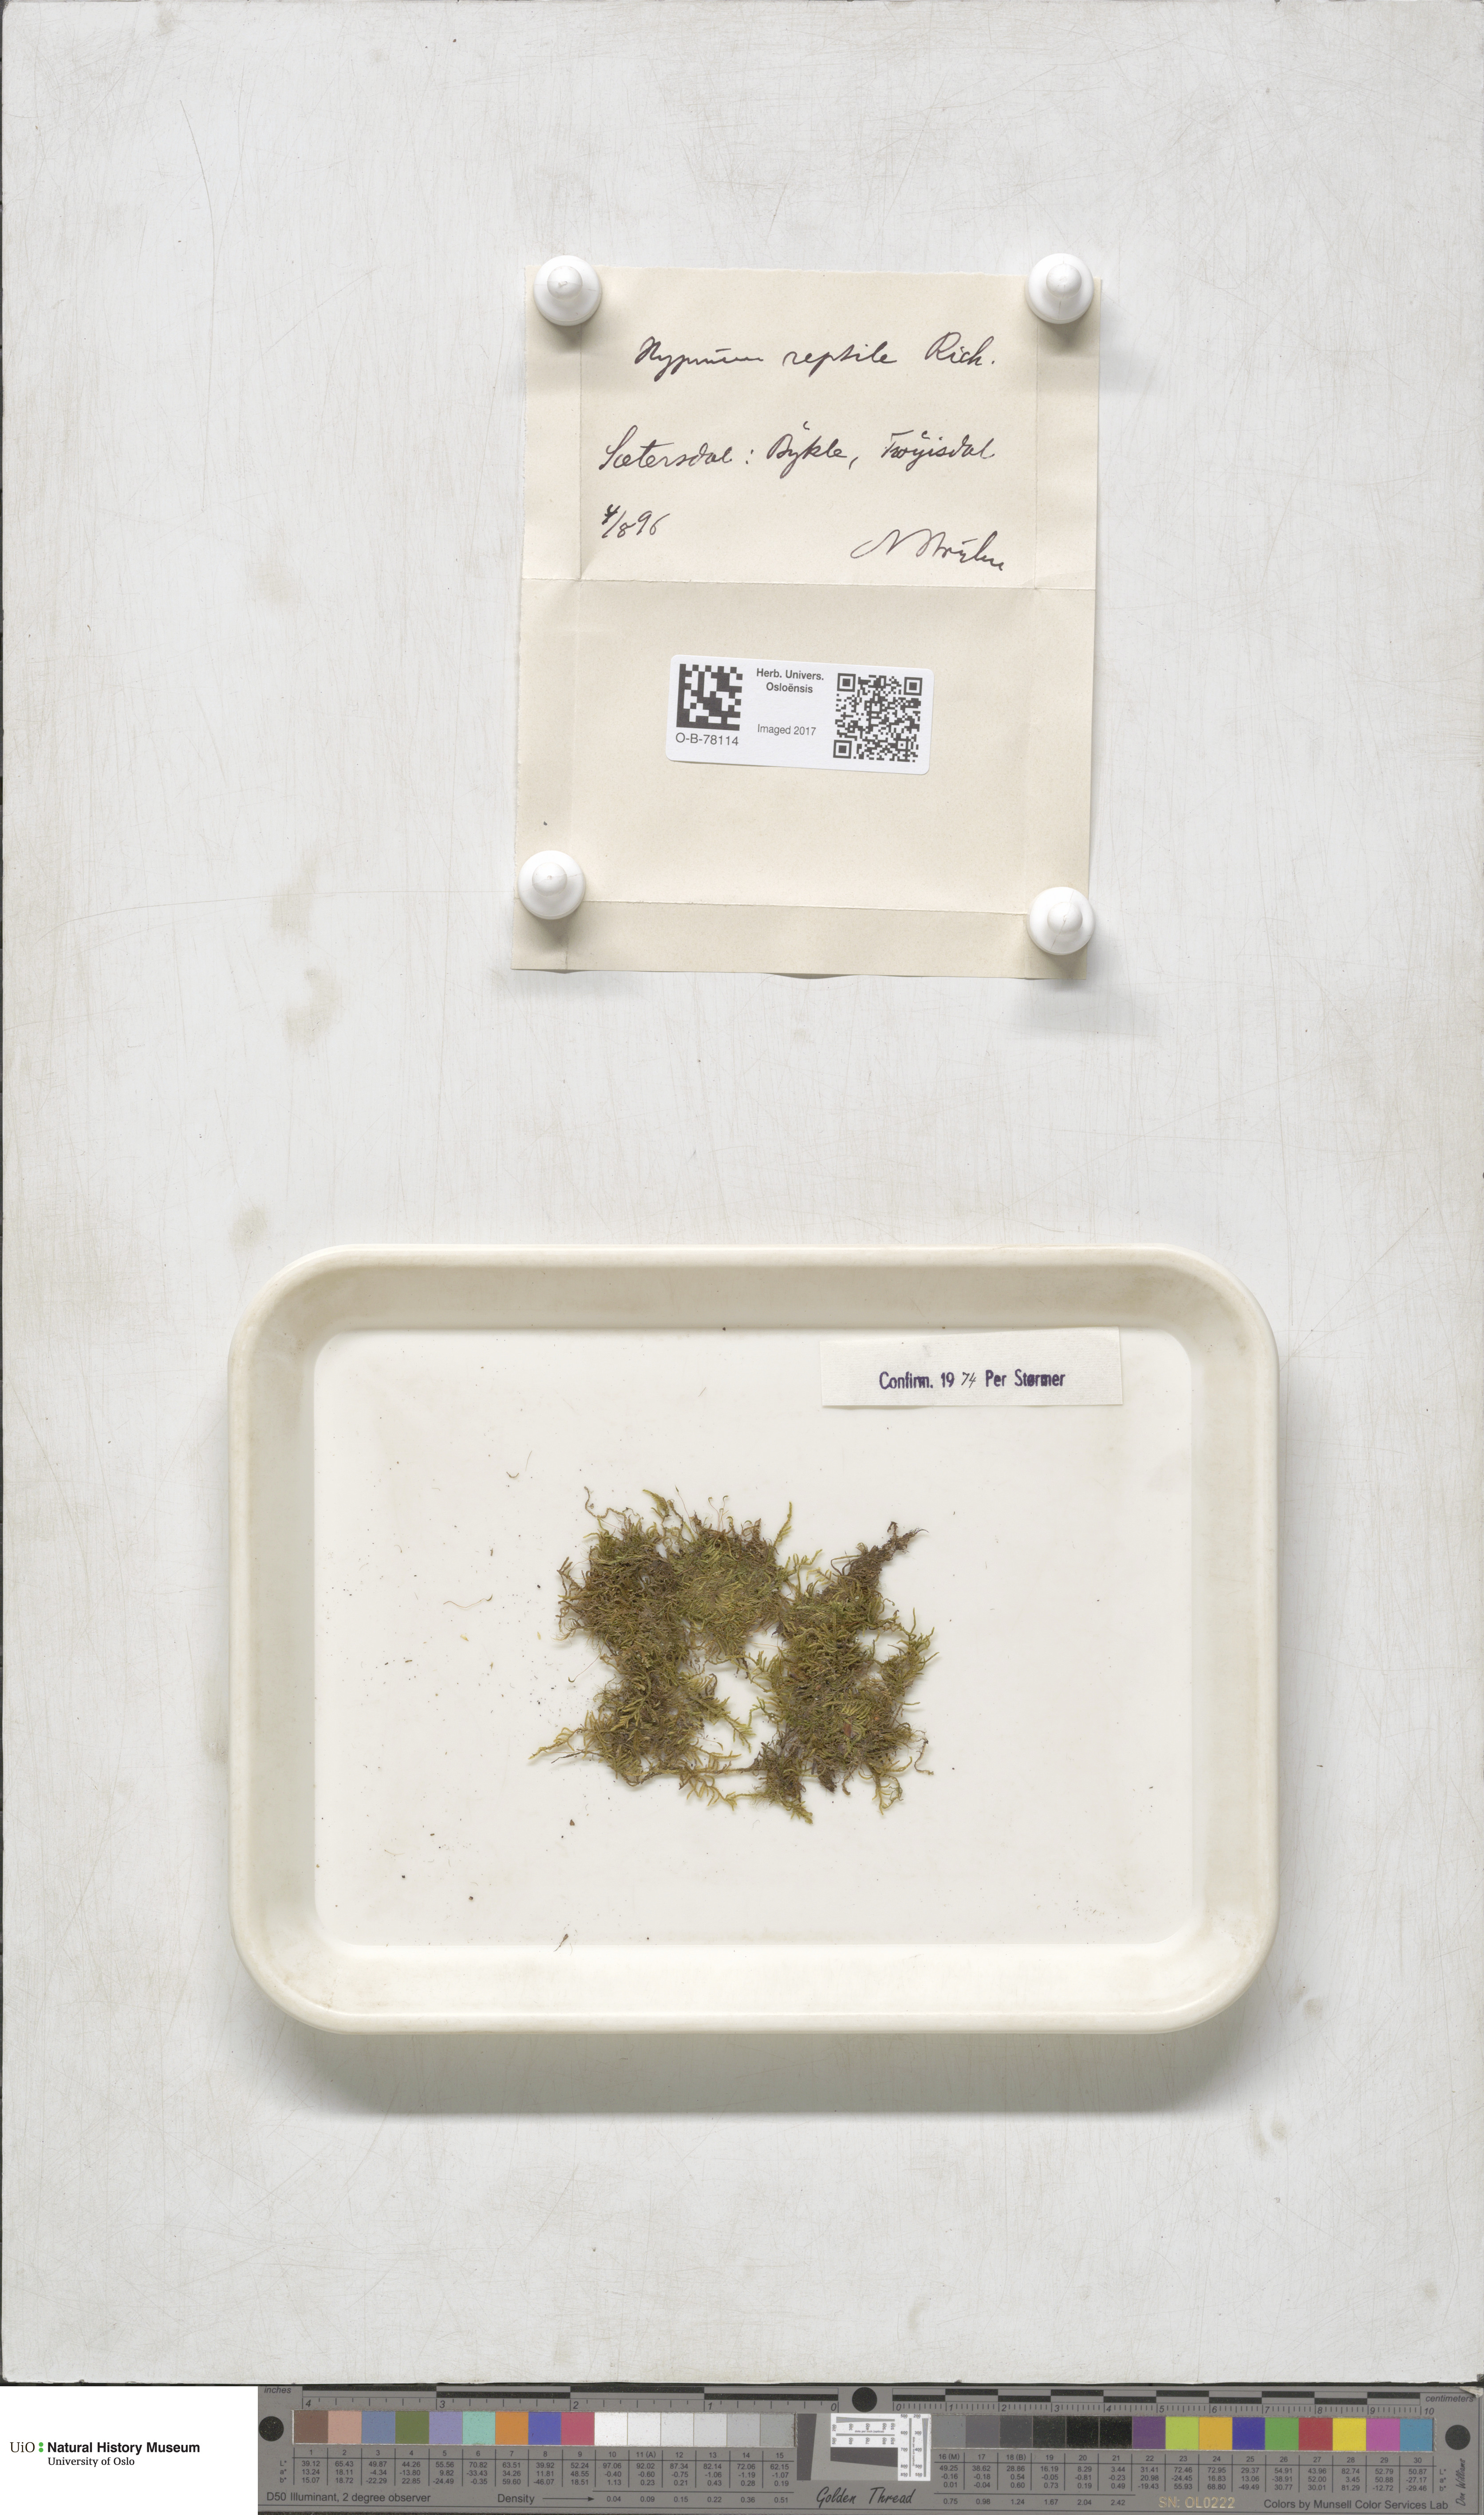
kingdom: Plantae
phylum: Bryophyta
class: Bryopsida
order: Hypnales
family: Jocheniaceae
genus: Jochenia
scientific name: Jochenia pallescens
